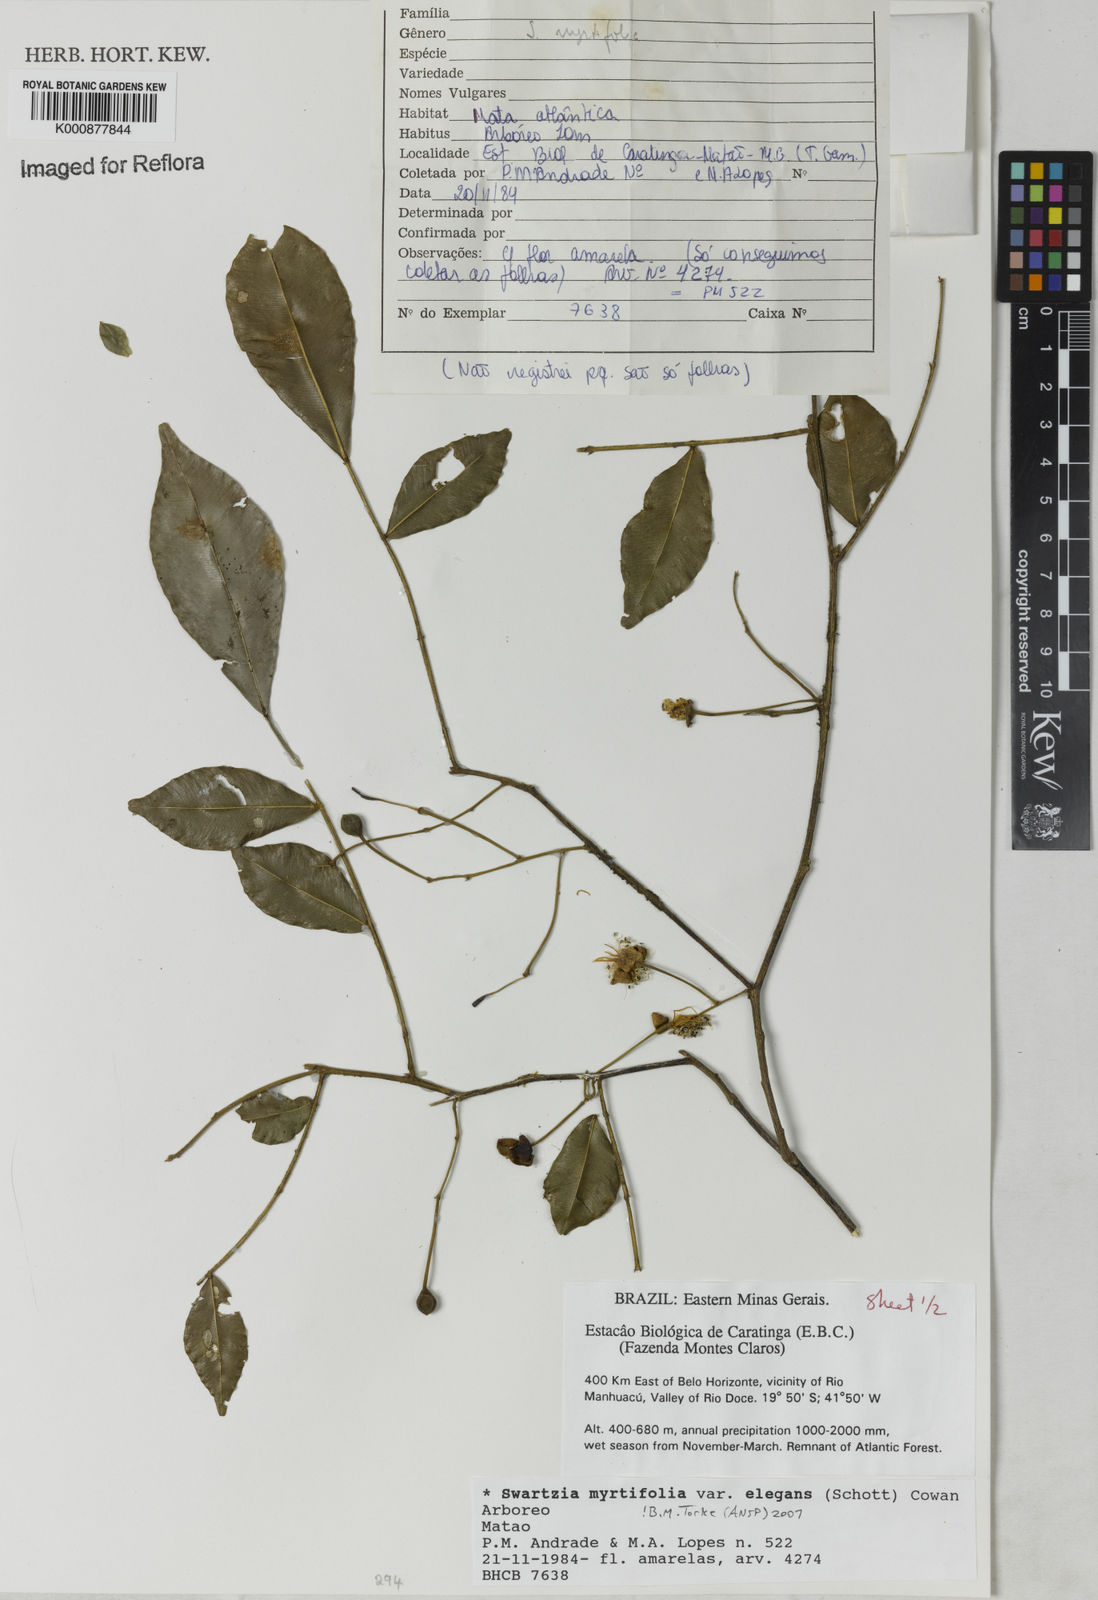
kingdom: Plantae
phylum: Tracheophyta
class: Magnoliopsida
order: Fabales
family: Fabaceae
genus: Swartzia
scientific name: Swartzia myrtifolia
